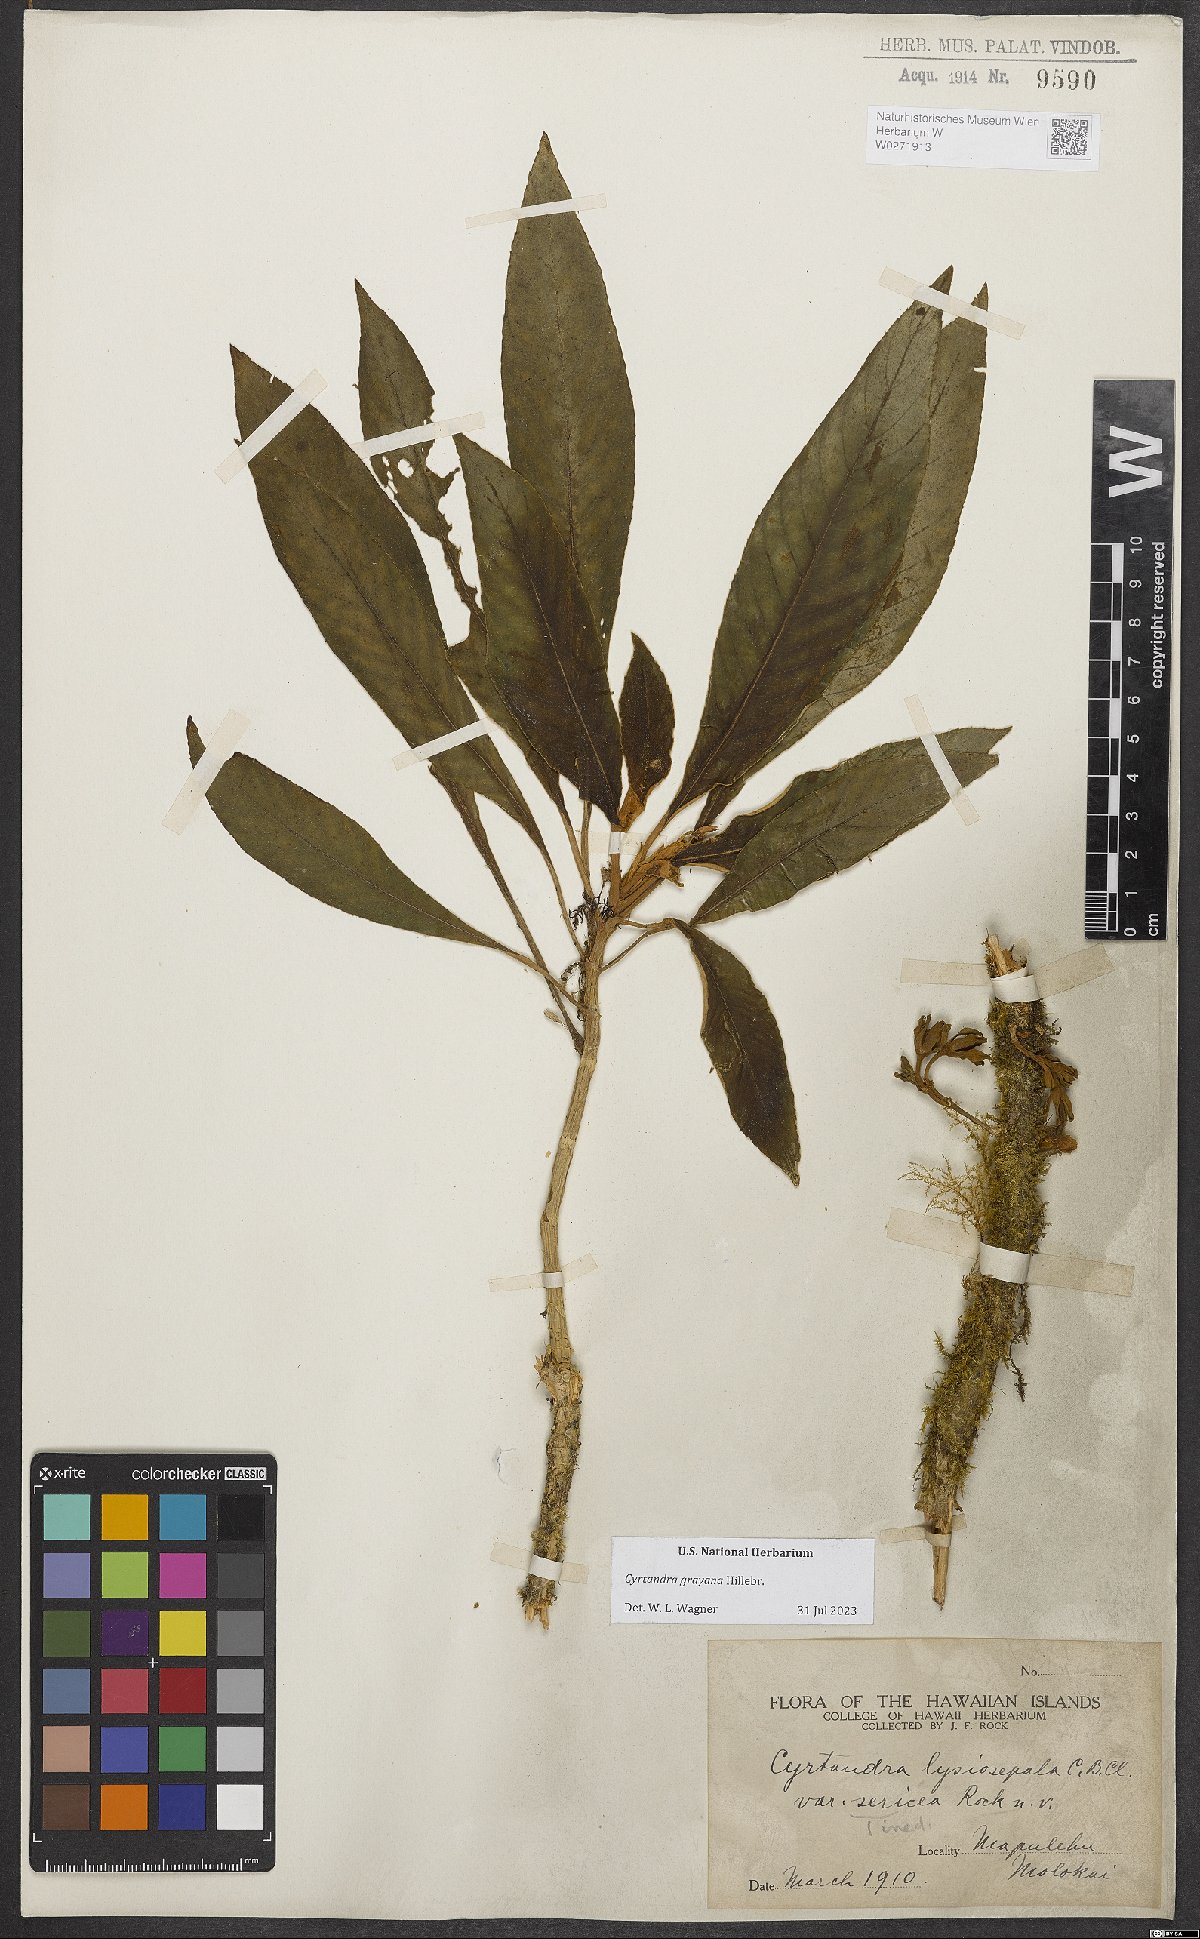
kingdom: Plantae
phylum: Tracheophyta
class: Magnoliopsida
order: Lamiales
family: Gesneriaceae
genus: Cyrtandra
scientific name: Cyrtandra grayana
